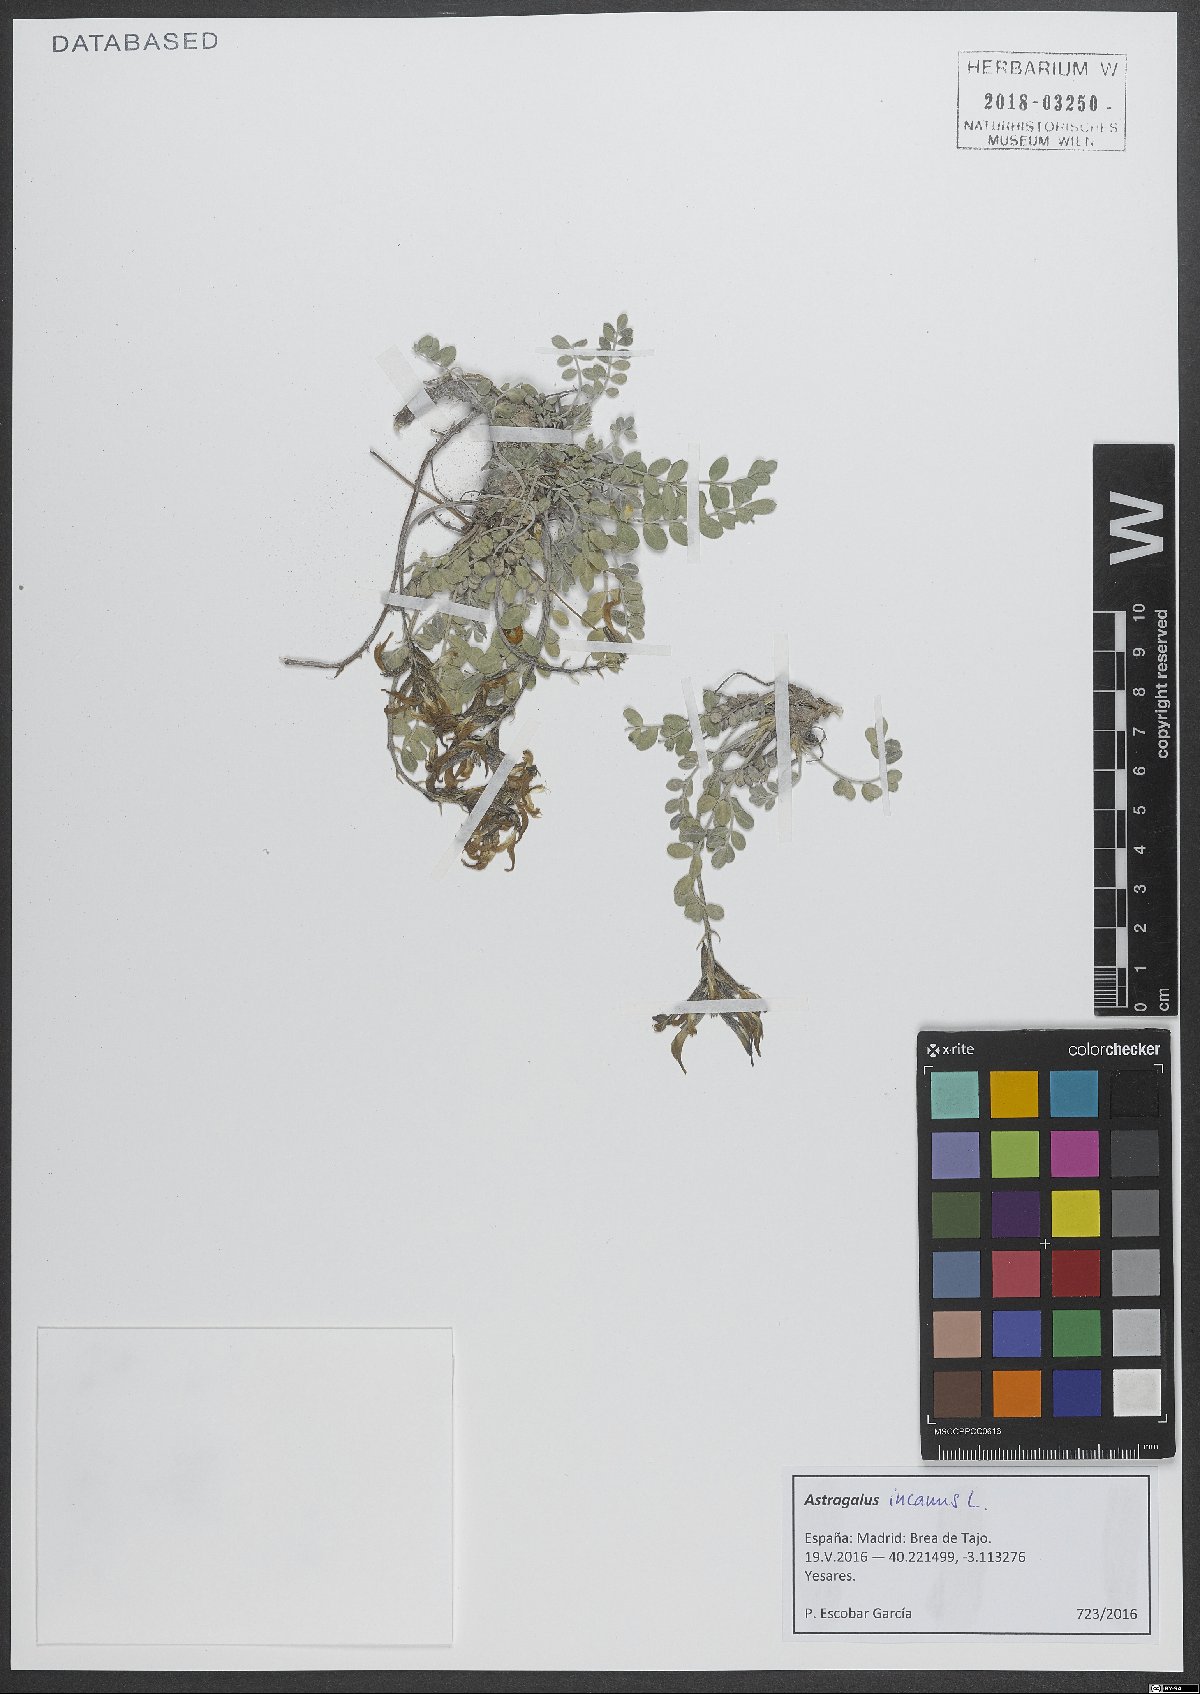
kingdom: Plantae
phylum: Tracheophyta
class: Magnoliopsida
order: Fabales
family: Fabaceae
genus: Astragalus
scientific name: Astragalus incanus
